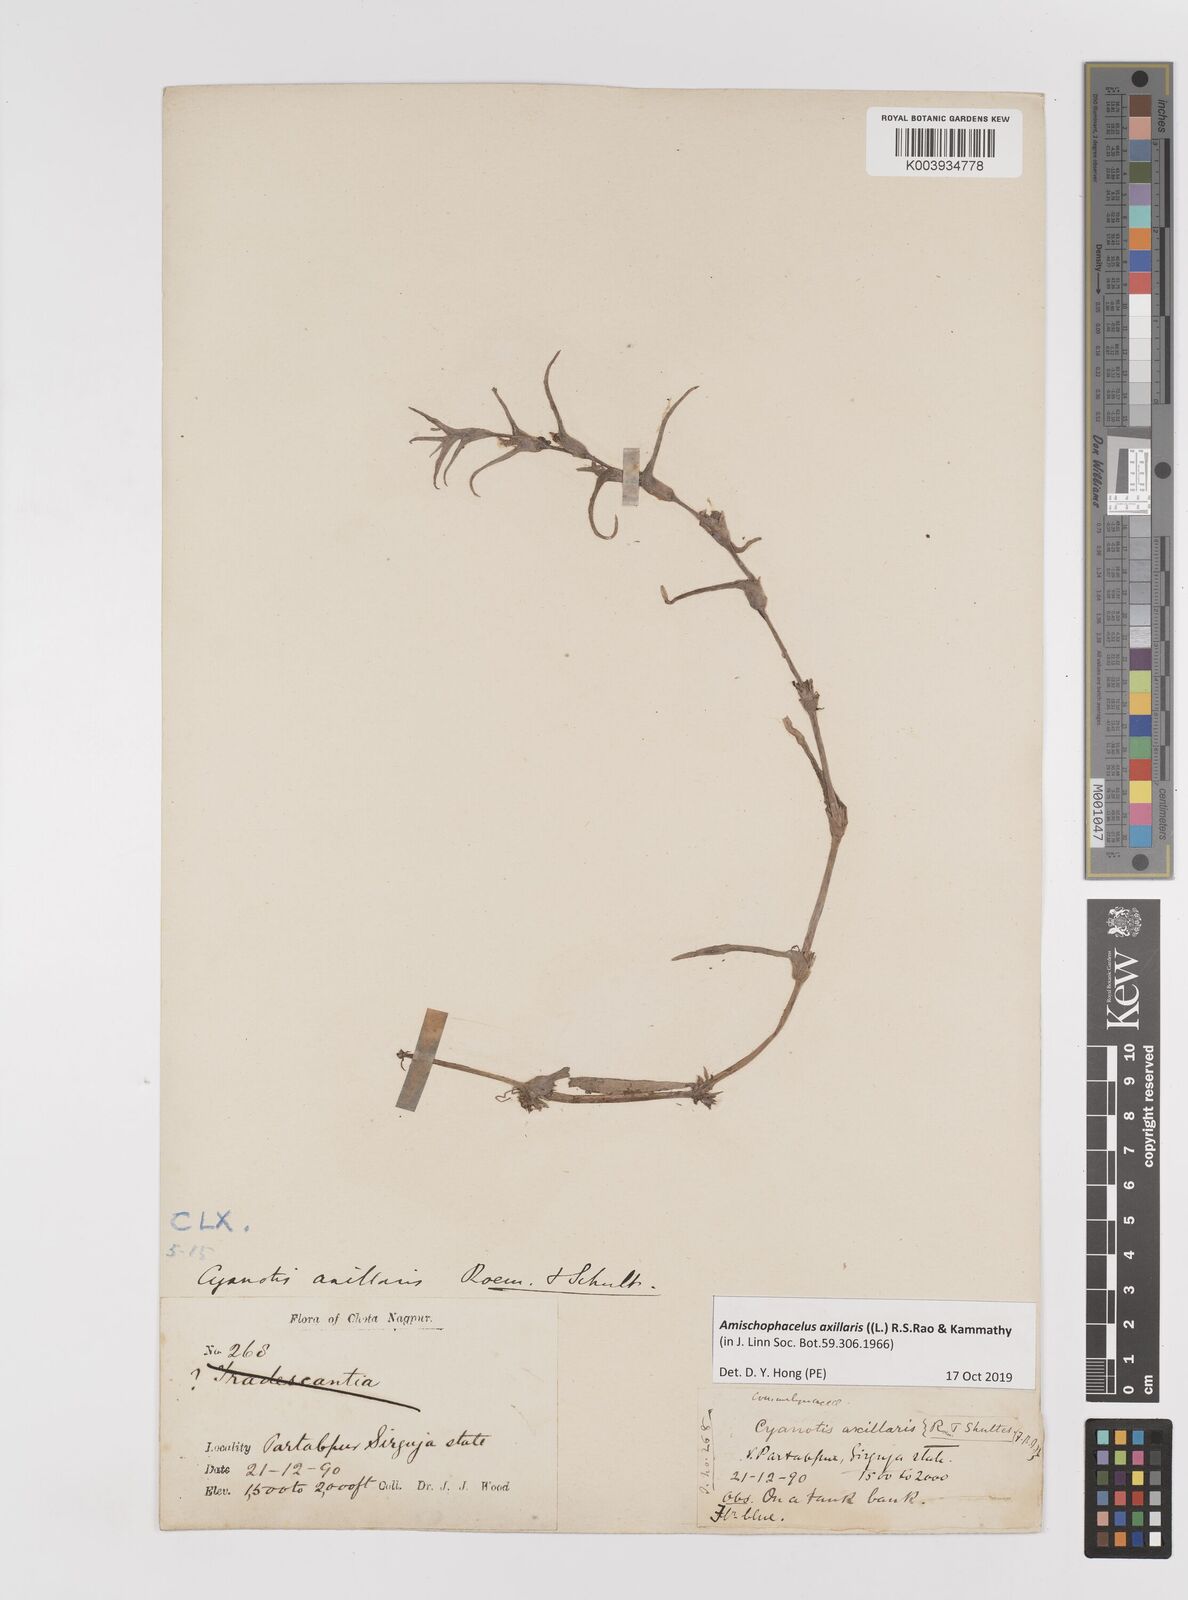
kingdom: Plantae
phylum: Tracheophyta
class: Liliopsida
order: Commelinales
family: Commelinaceae
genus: Cyanotis
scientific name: Cyanotis axillaris
